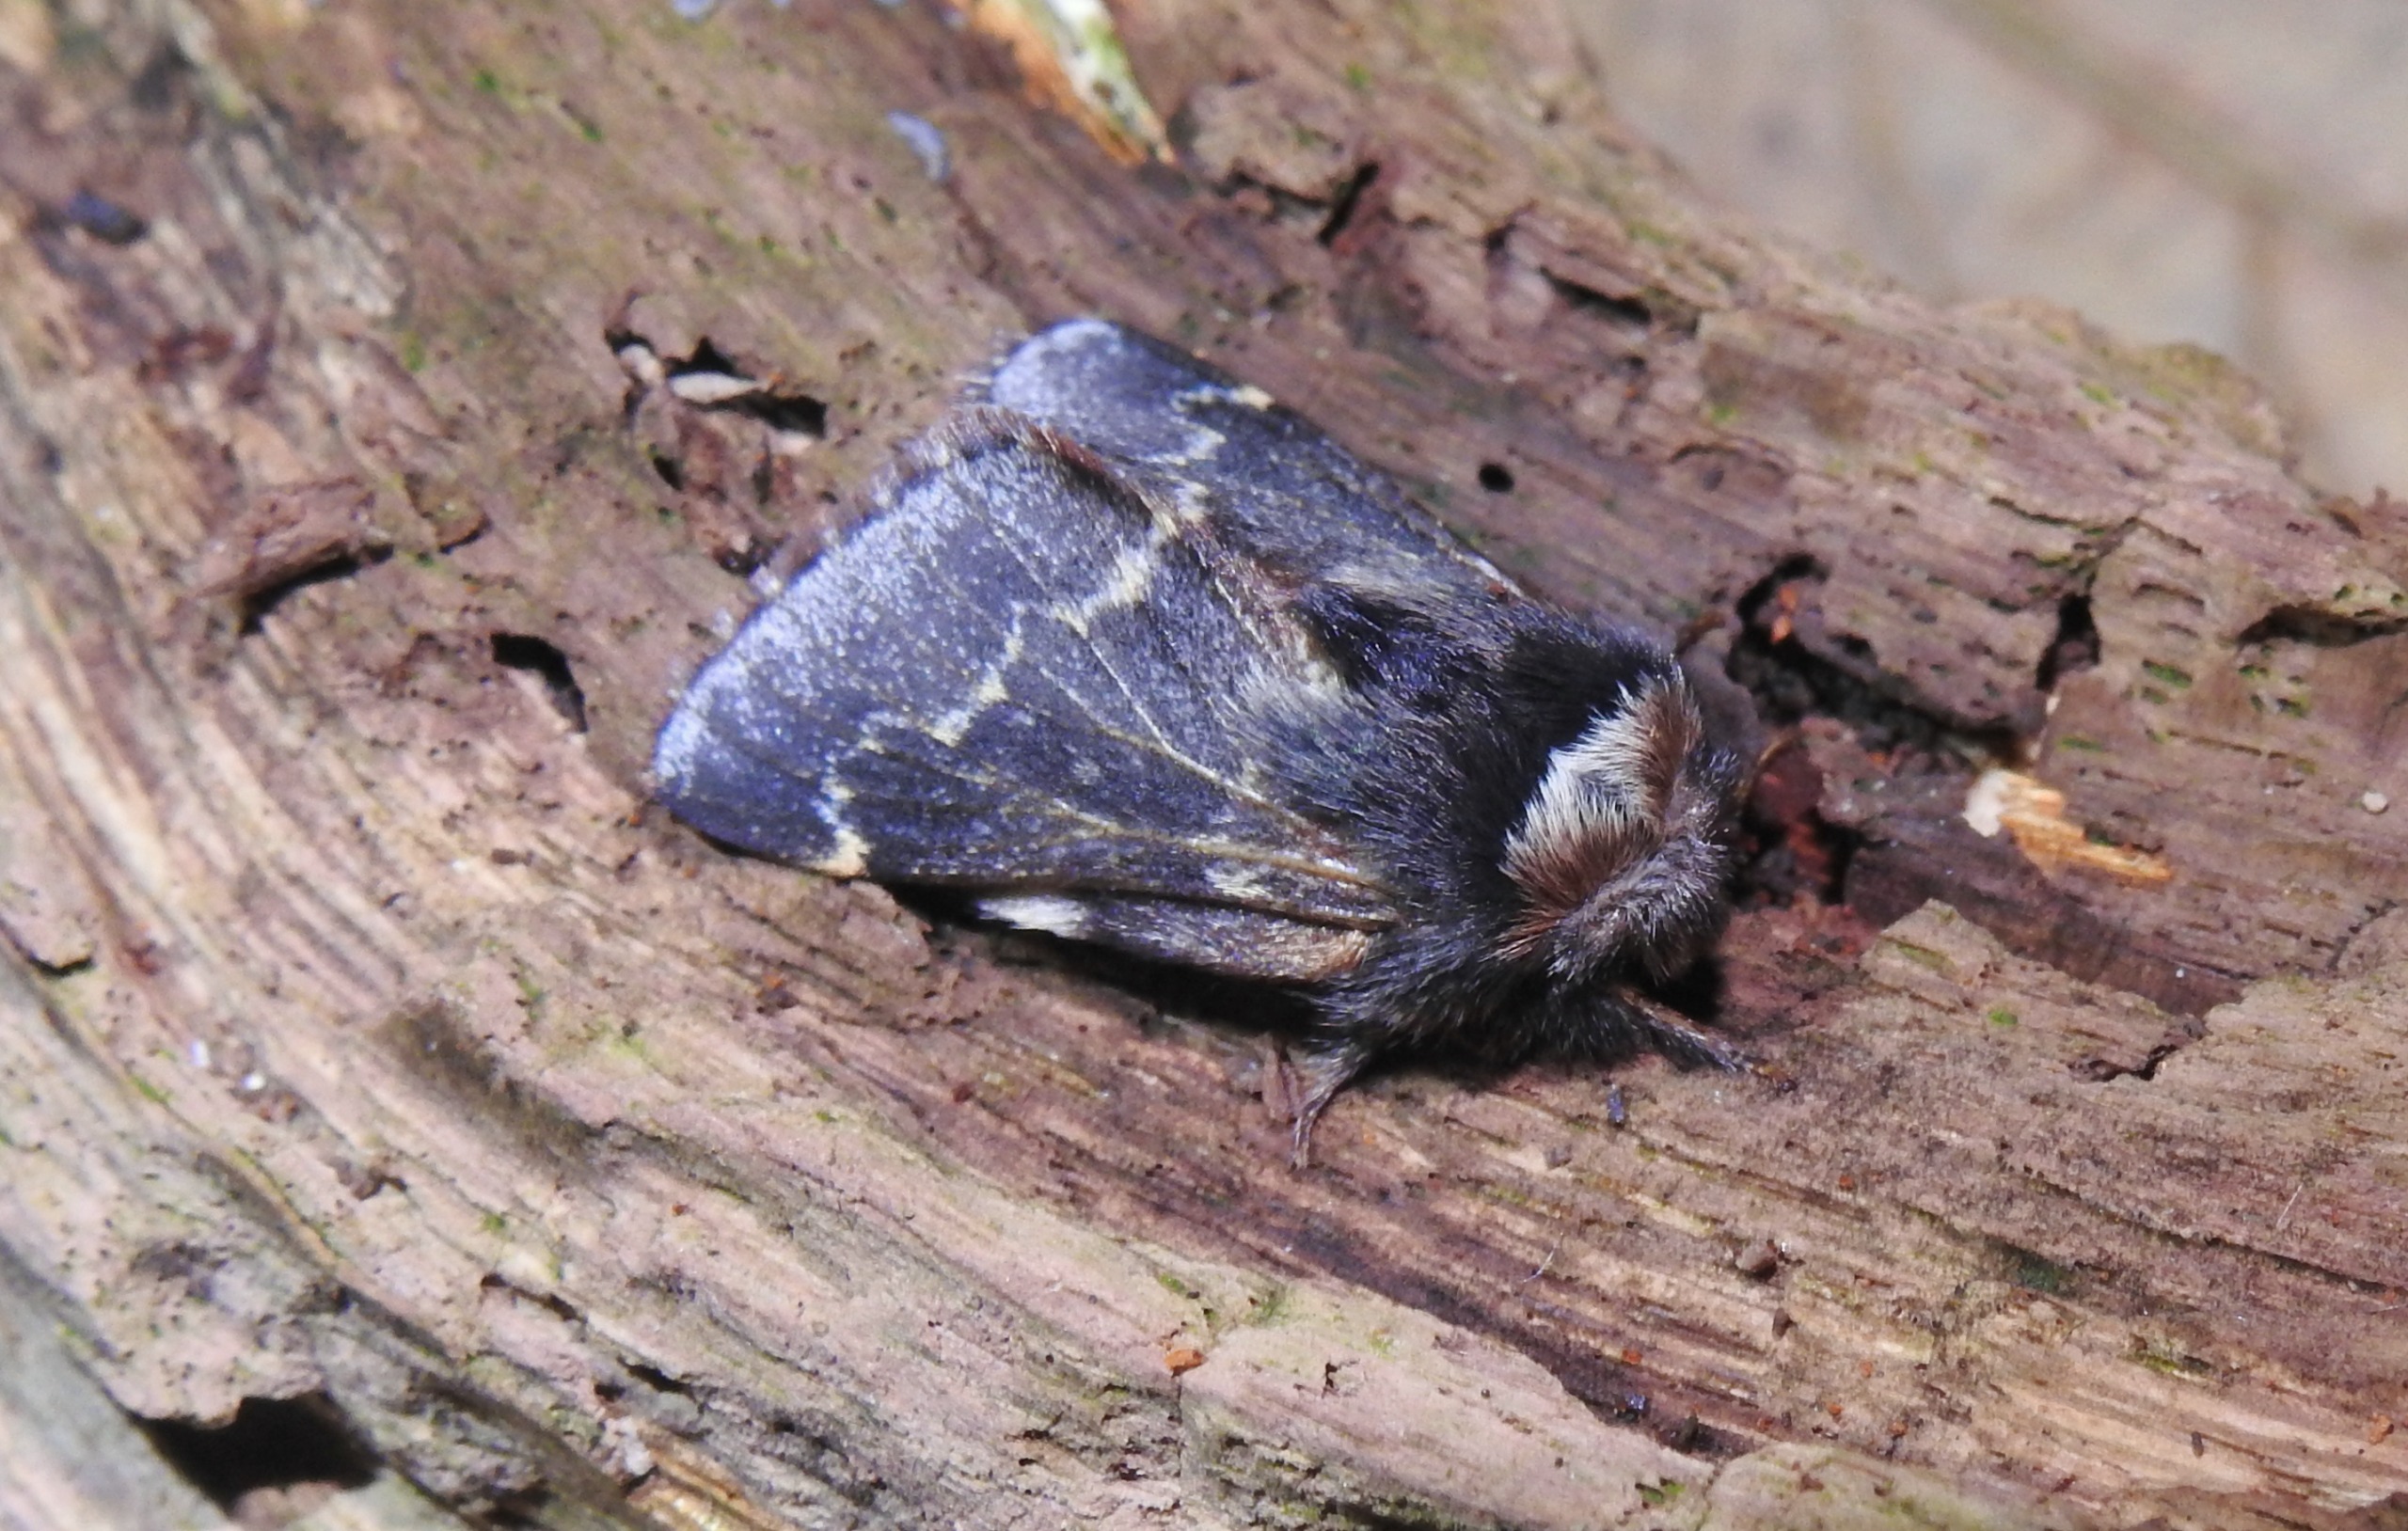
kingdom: Animalia
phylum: Arthropoda
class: Insecta
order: Lepidoptera
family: Lasiocampidae
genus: Poecilocampa
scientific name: Poecilocampa populi
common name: Poppelspinder
